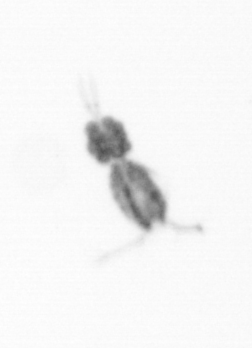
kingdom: Animalia
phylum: Arthropoda
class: Copepoda
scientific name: Copepoda
